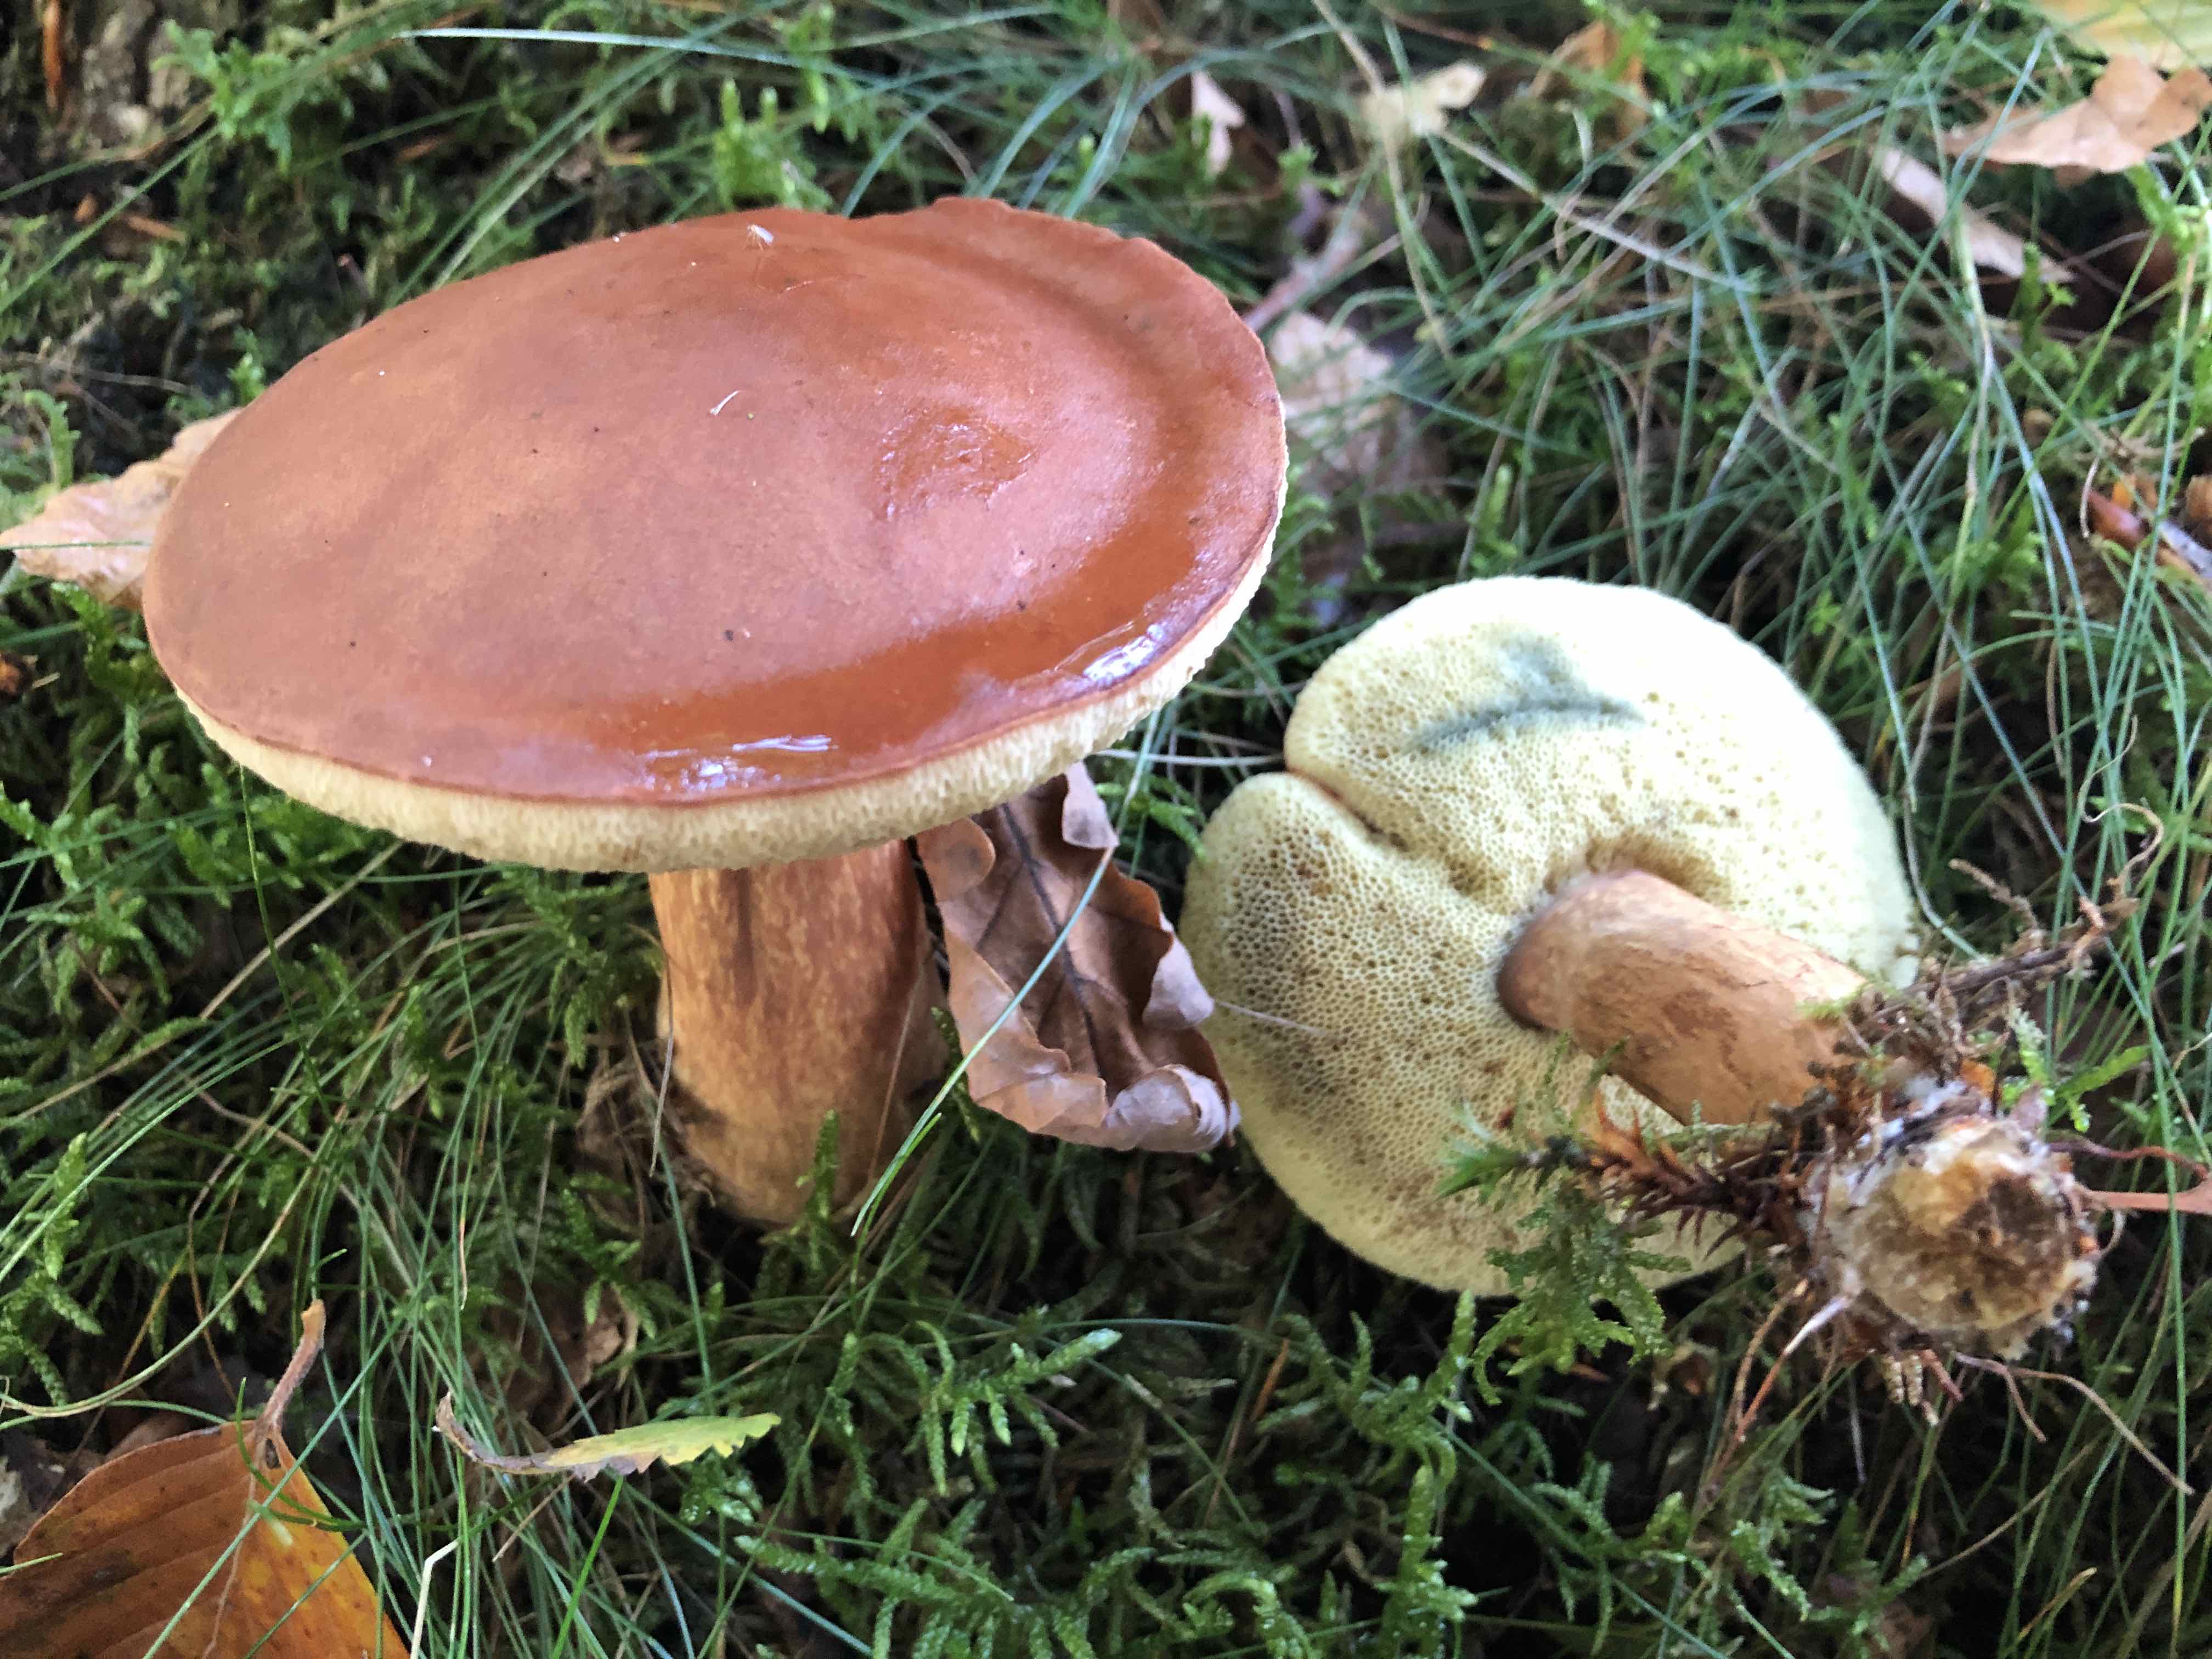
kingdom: Fungi
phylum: Basidiomycota
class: Agaricomycetes
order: Boletales
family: Boletaceae
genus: Imleria
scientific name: Imleria badia
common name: brunstokket rørhat
